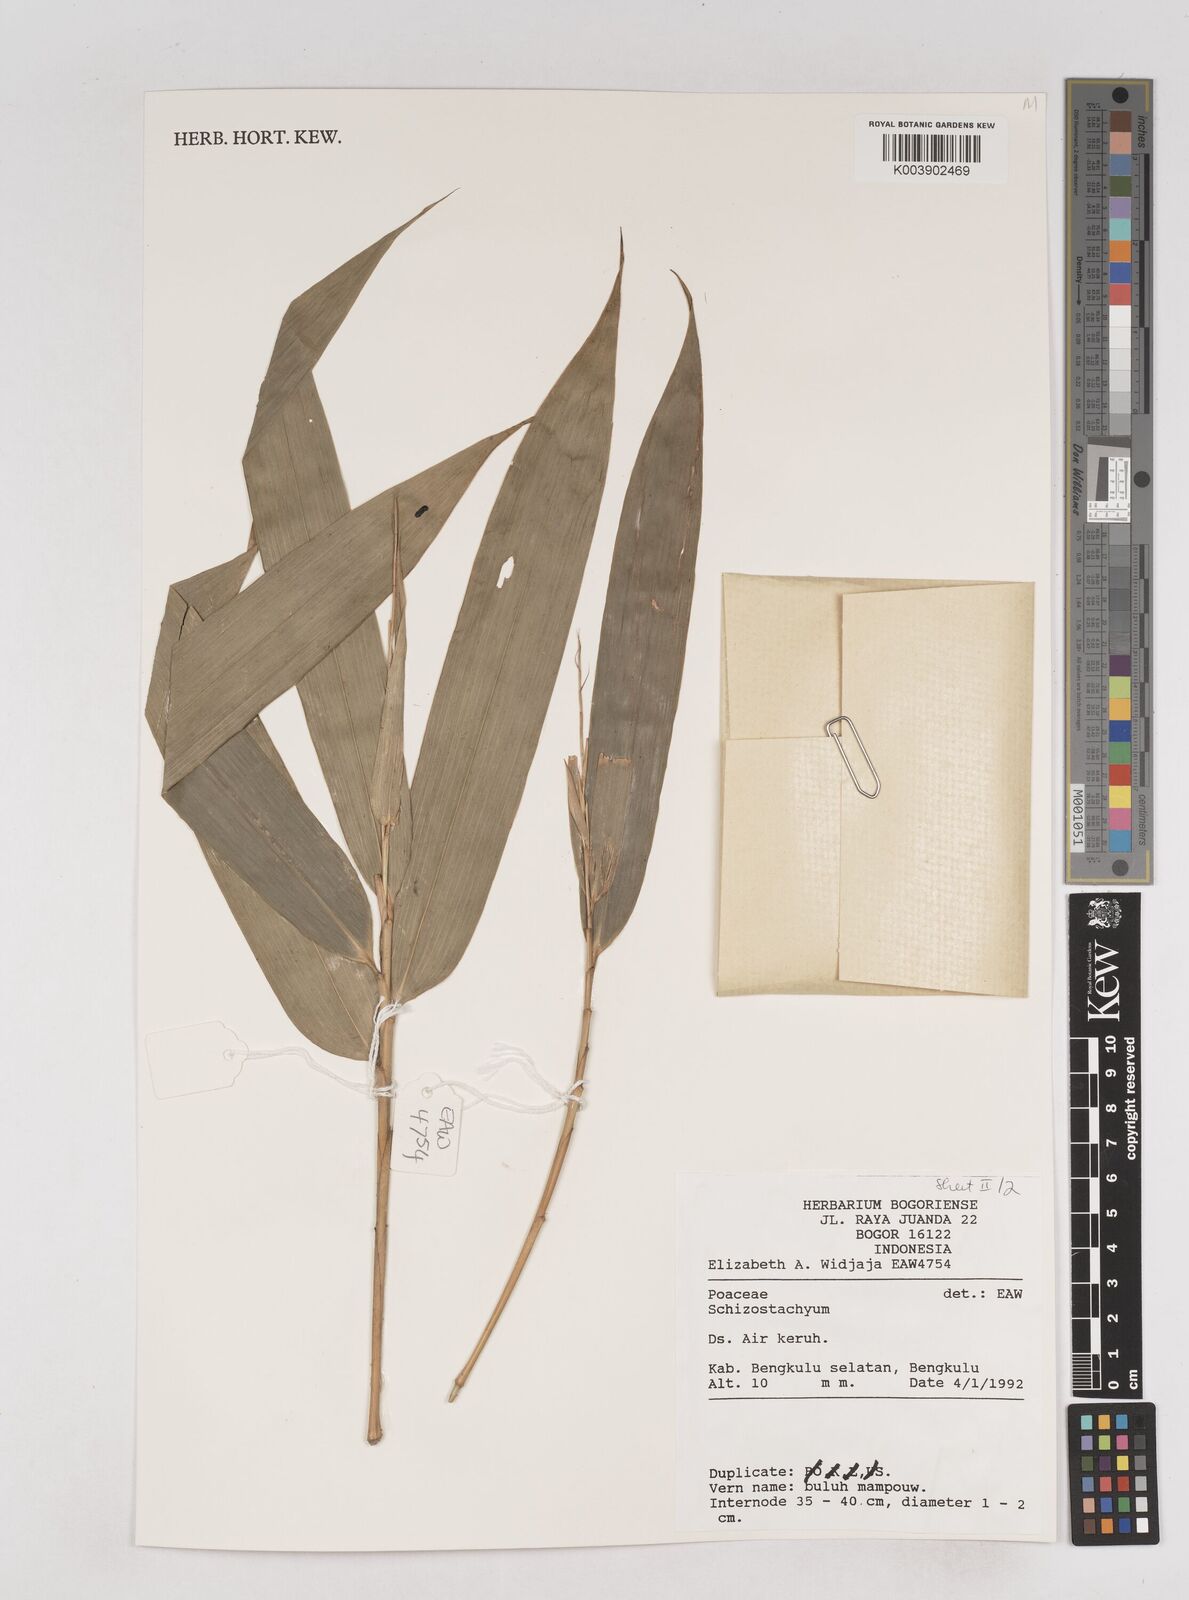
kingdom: Plantae
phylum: Tracheophyta
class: Liliopsida
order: Poales
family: Poaceae
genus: Schizostachyum
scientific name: Schizostachyum
